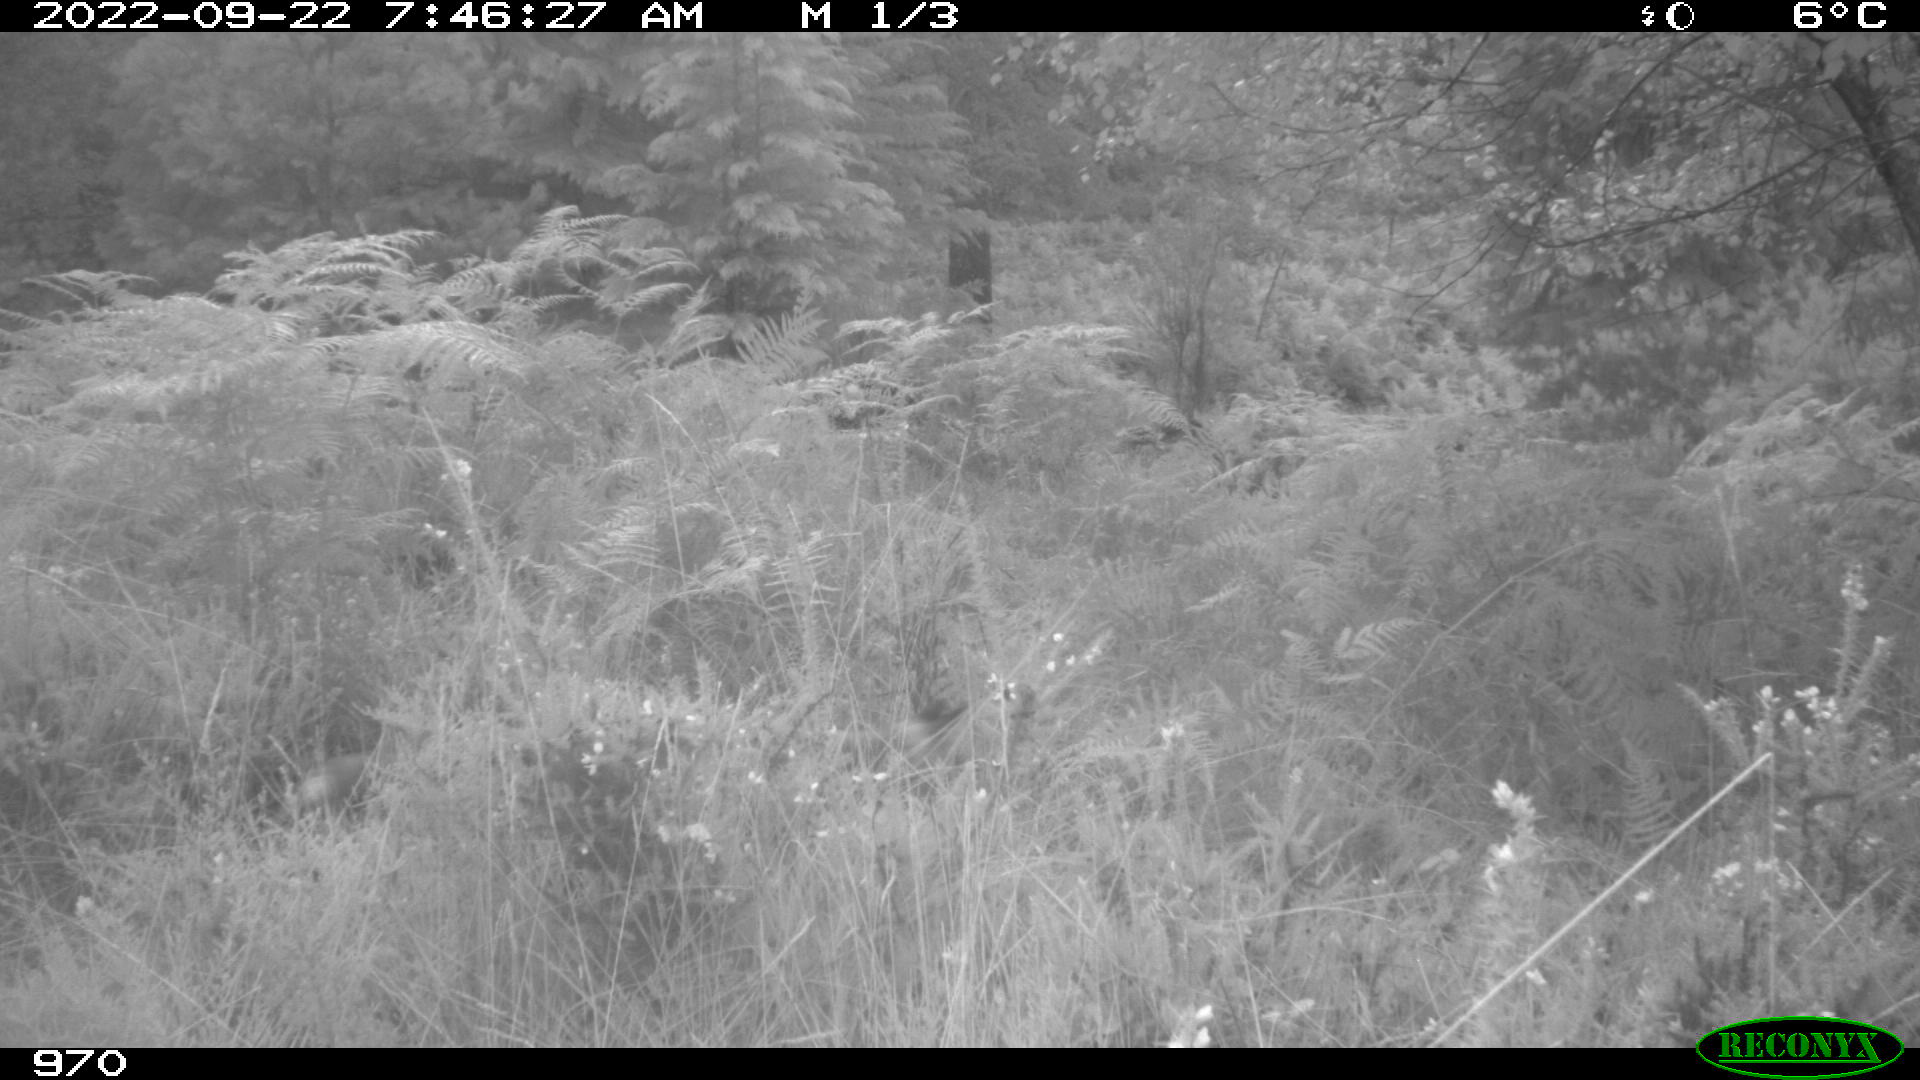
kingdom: Animalia
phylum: Chordata
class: Mammalia
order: Carnivora
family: Canidae
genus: Vulpes
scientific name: Vulpes vulpes
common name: Red fox
